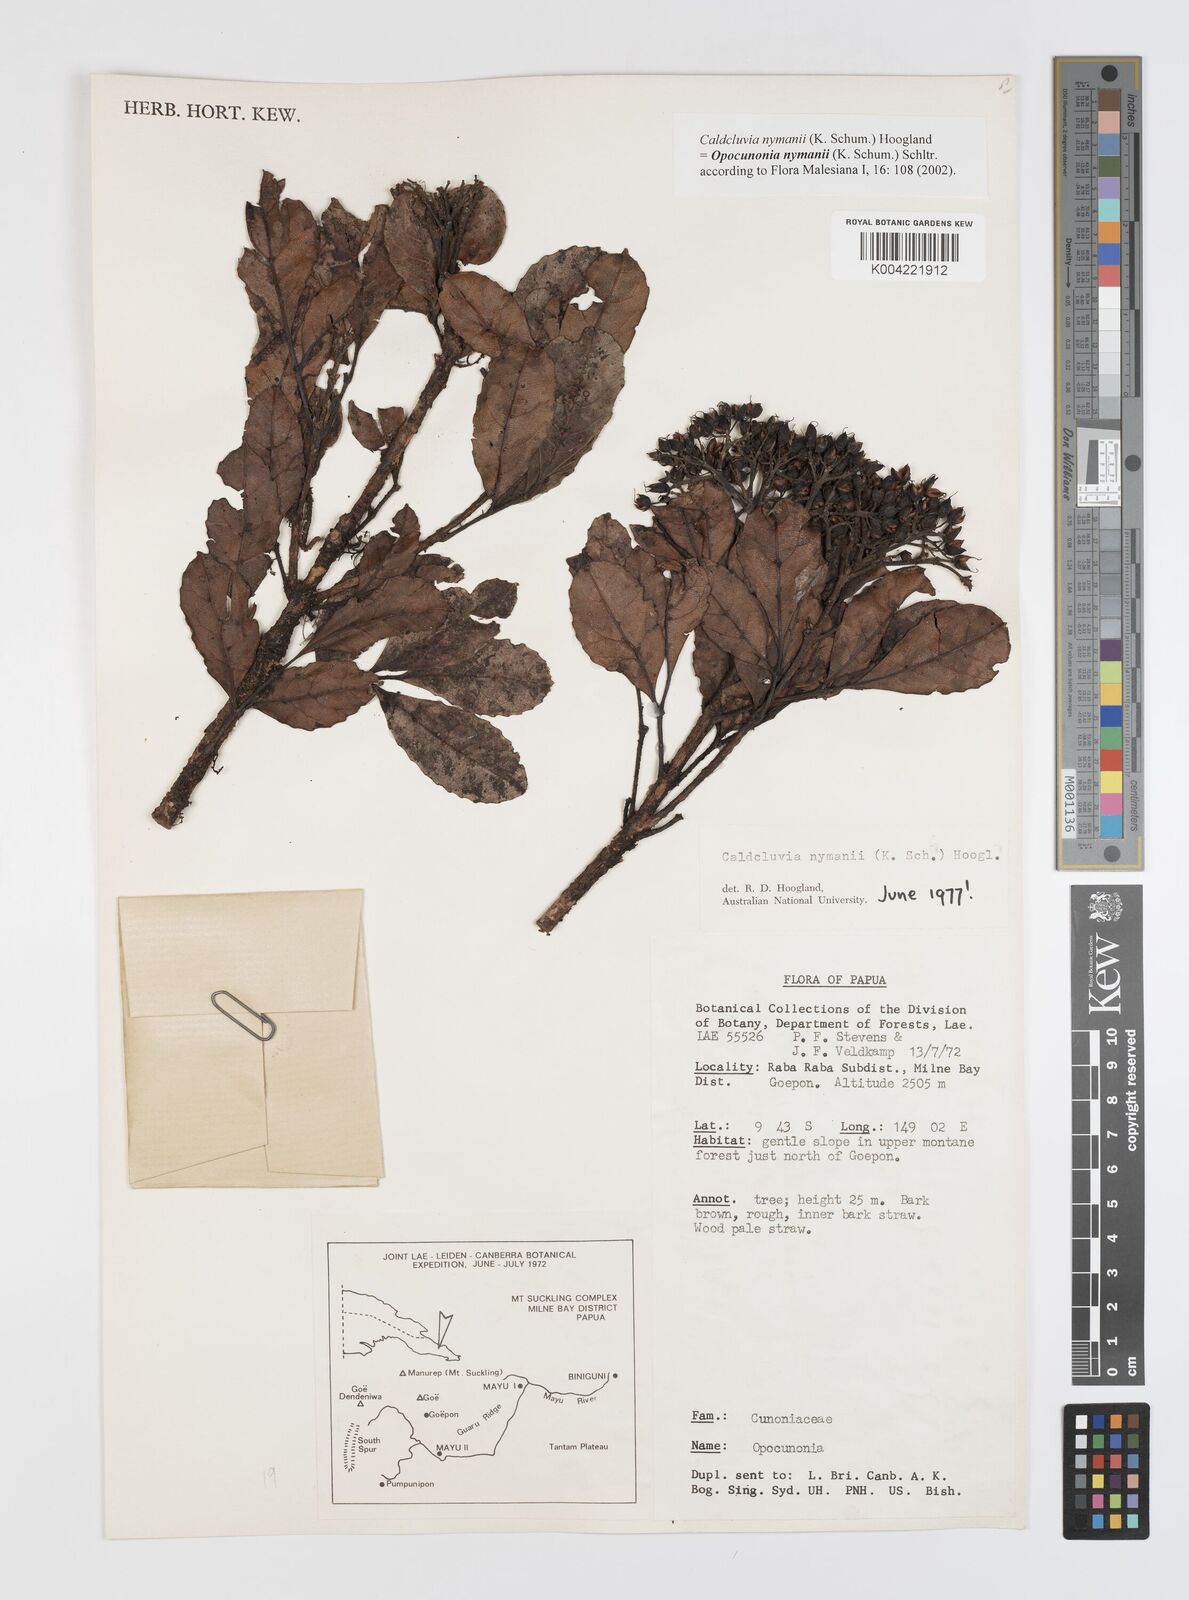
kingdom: Plantae
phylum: Tracheophyta
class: Magnoliopsida
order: Oxalidales
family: Cunoniaceae
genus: Opocunonia
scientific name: Opocunonia nymanii
